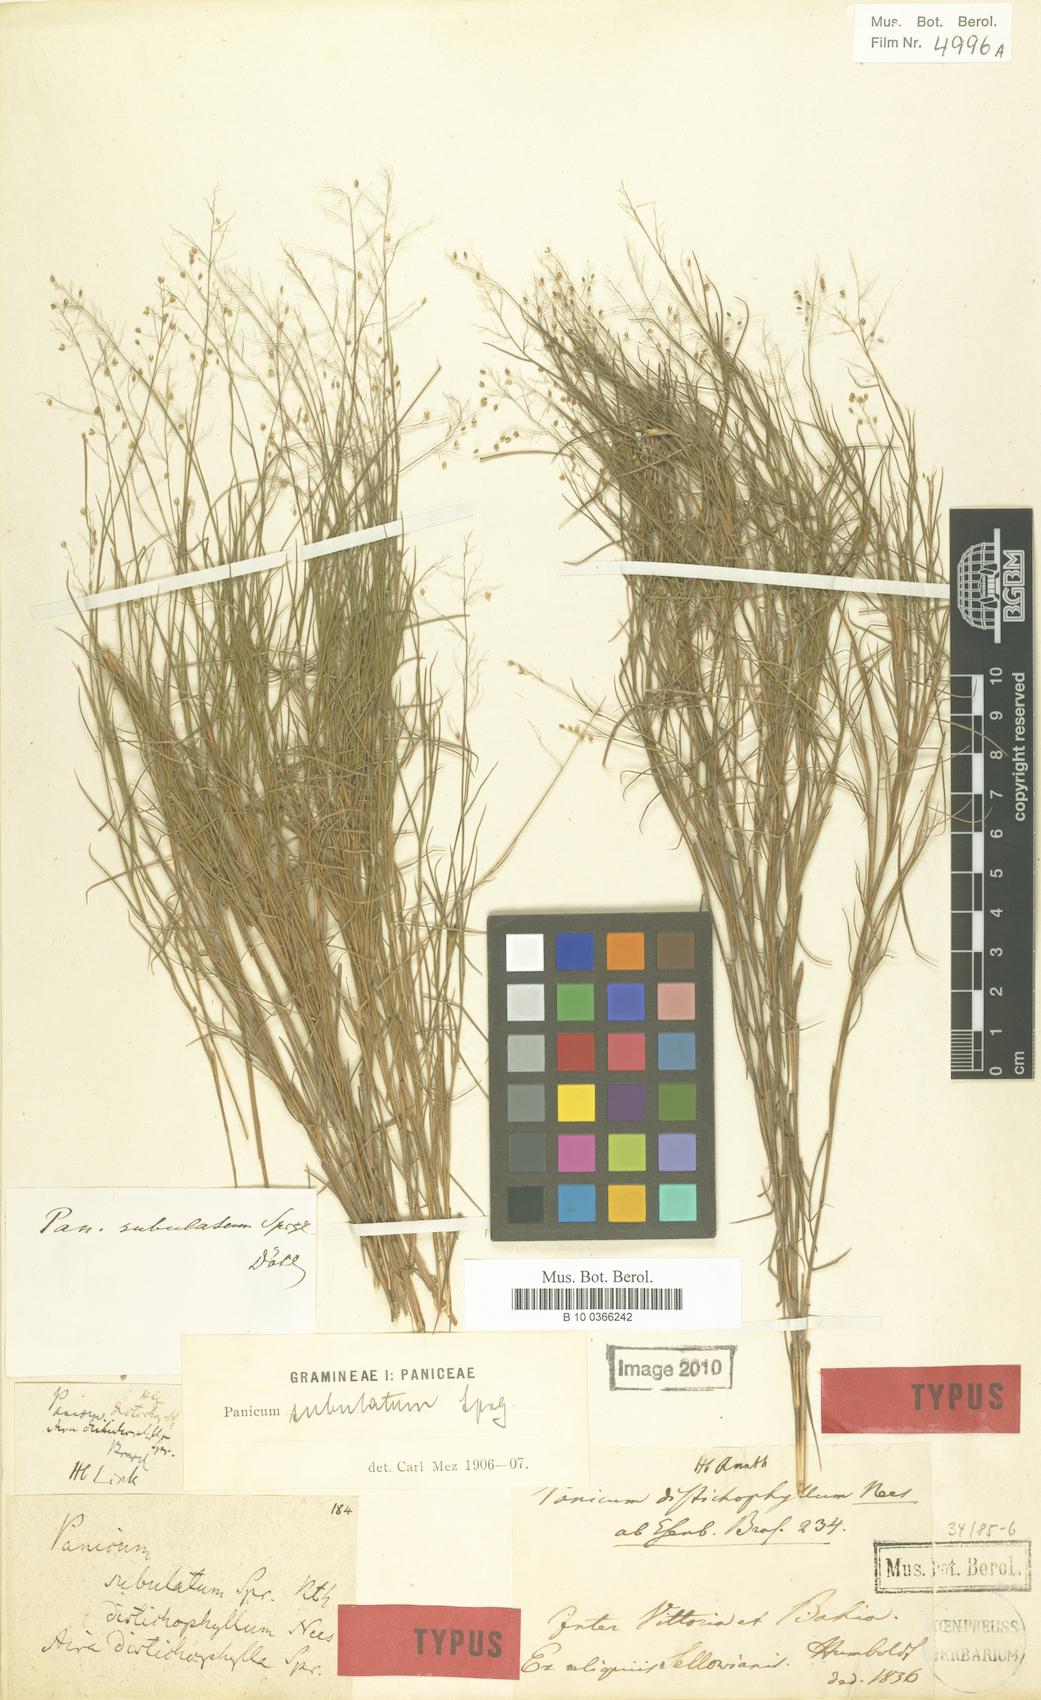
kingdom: Plantae
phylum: Tracheophyta
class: Liliopsida
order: Poales
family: Poaceae
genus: Trichanthecium
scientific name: Trichanthecium distichophyllum
